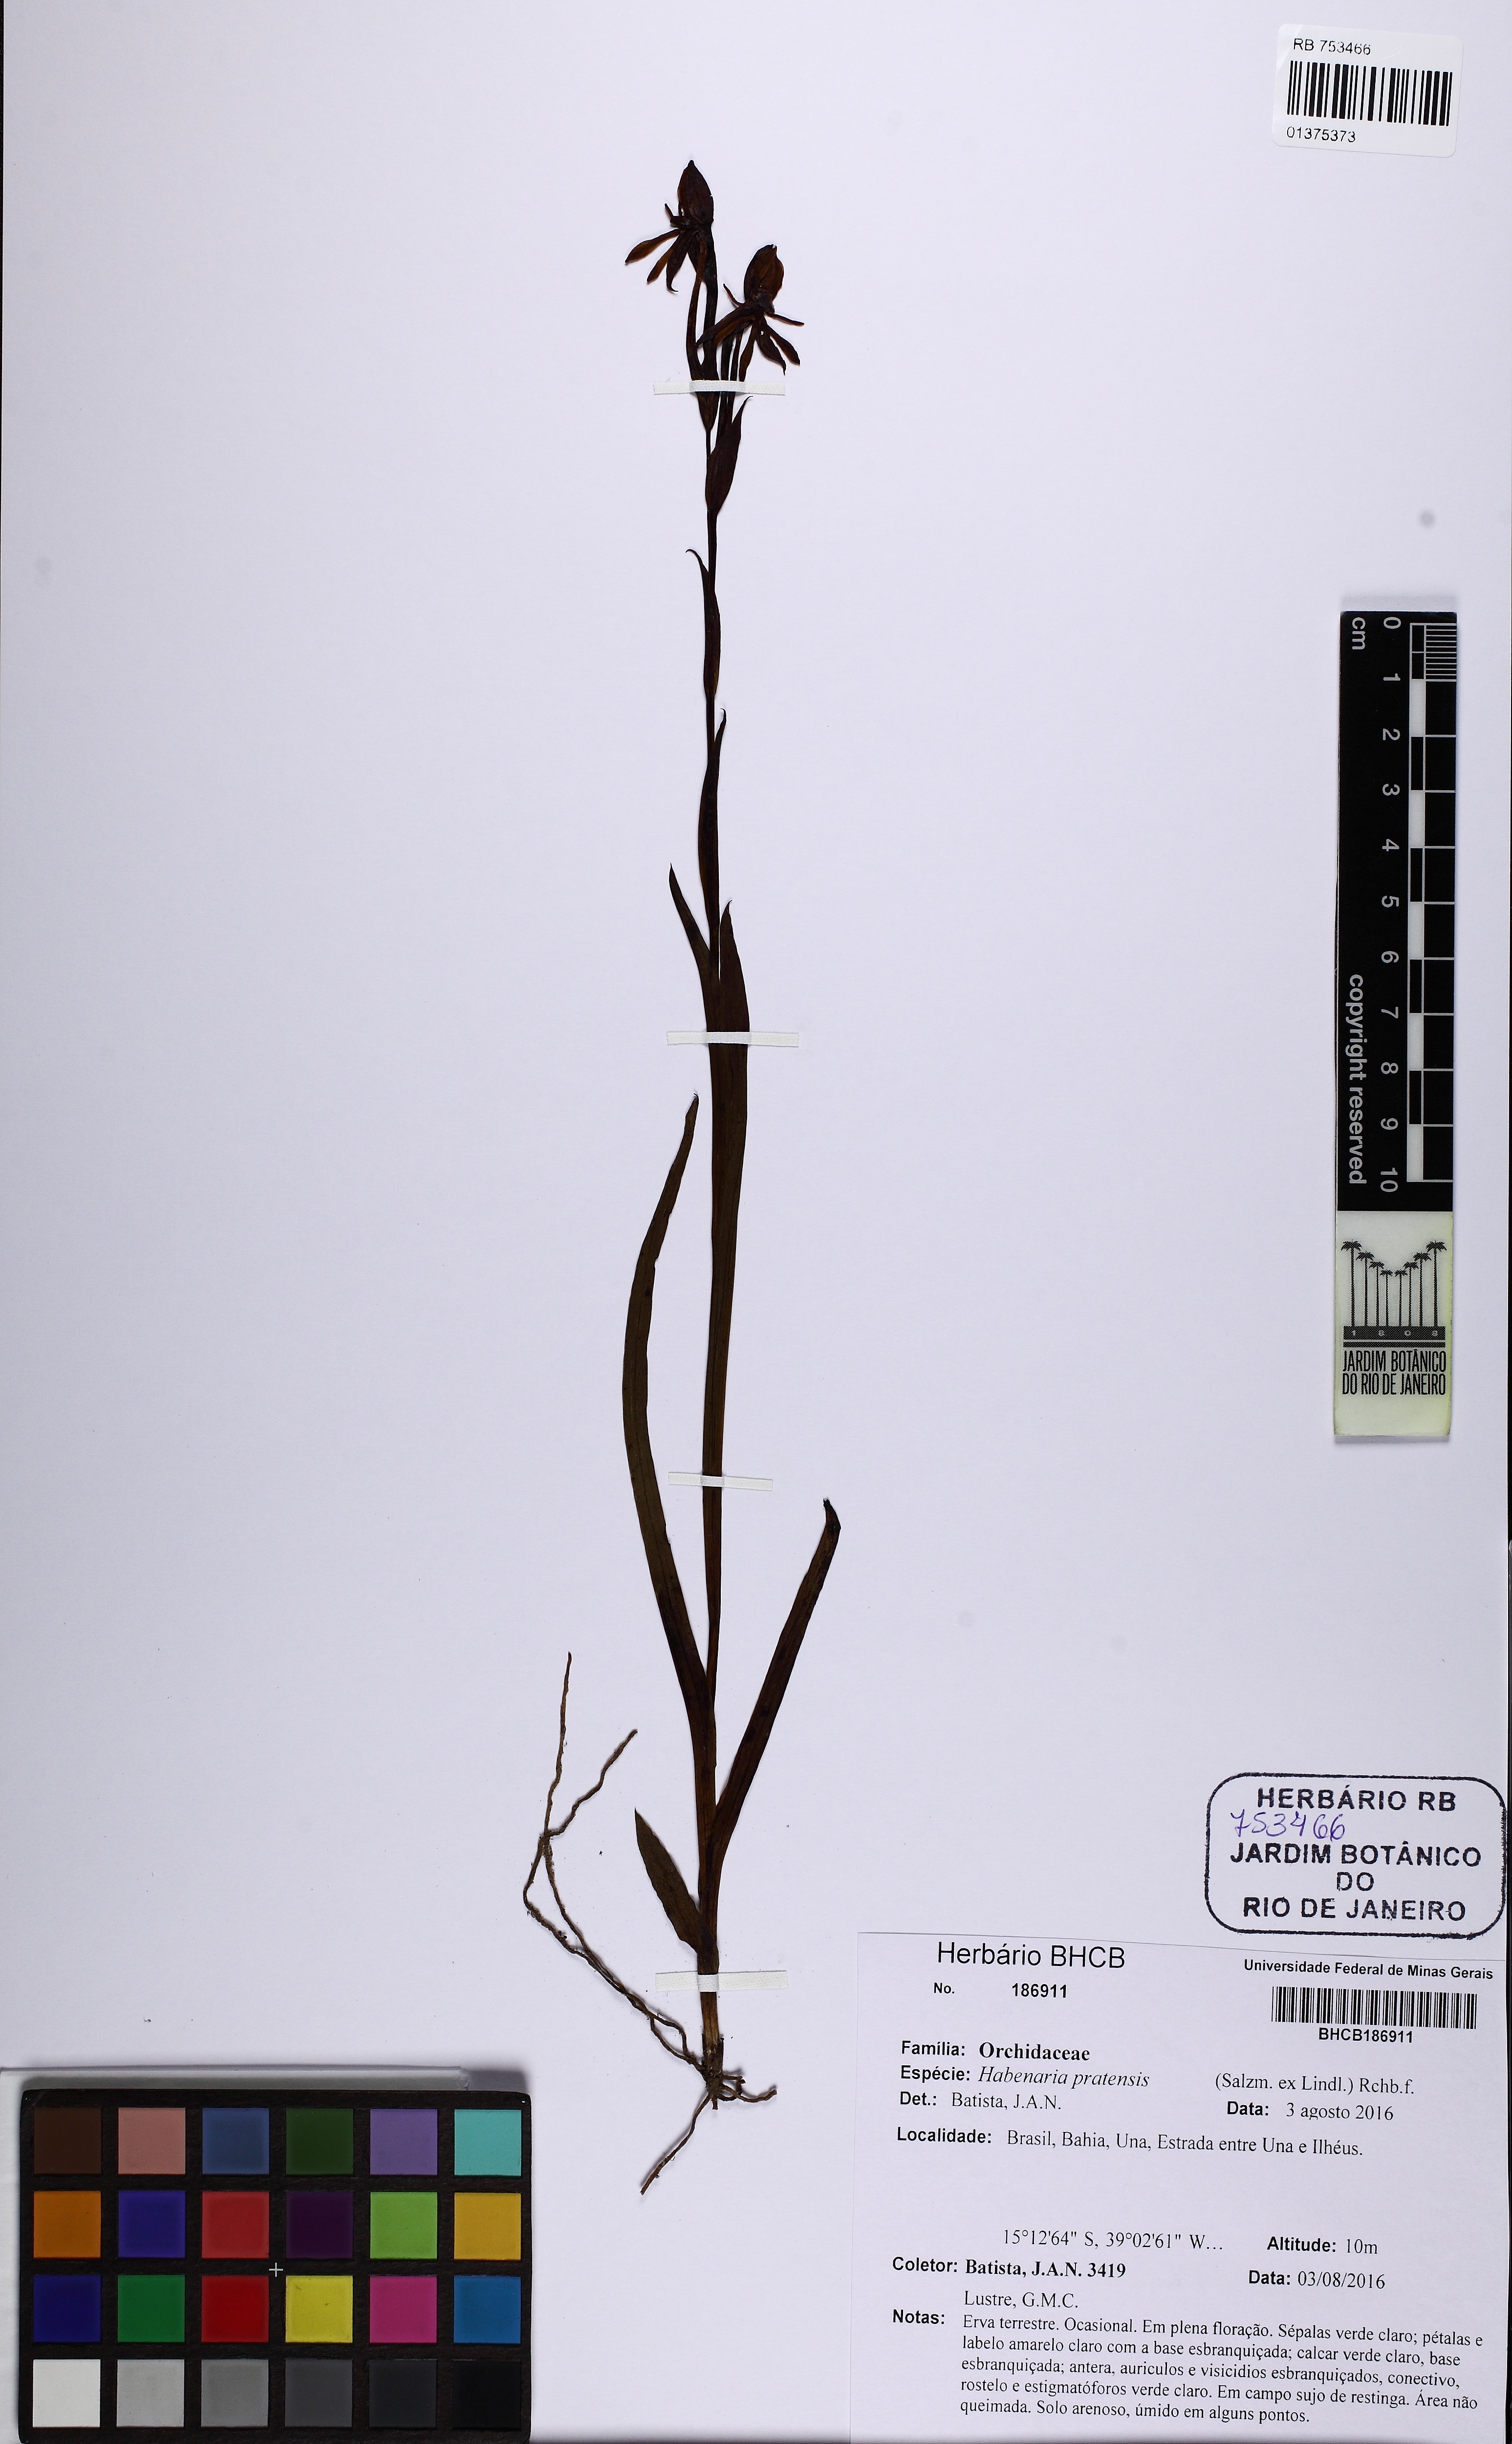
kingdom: Plantae
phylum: Tracheophyta
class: Liliopsida
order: Asparagales
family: Orchidaceae
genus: Habenaria
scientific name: Habenaria pratensis
